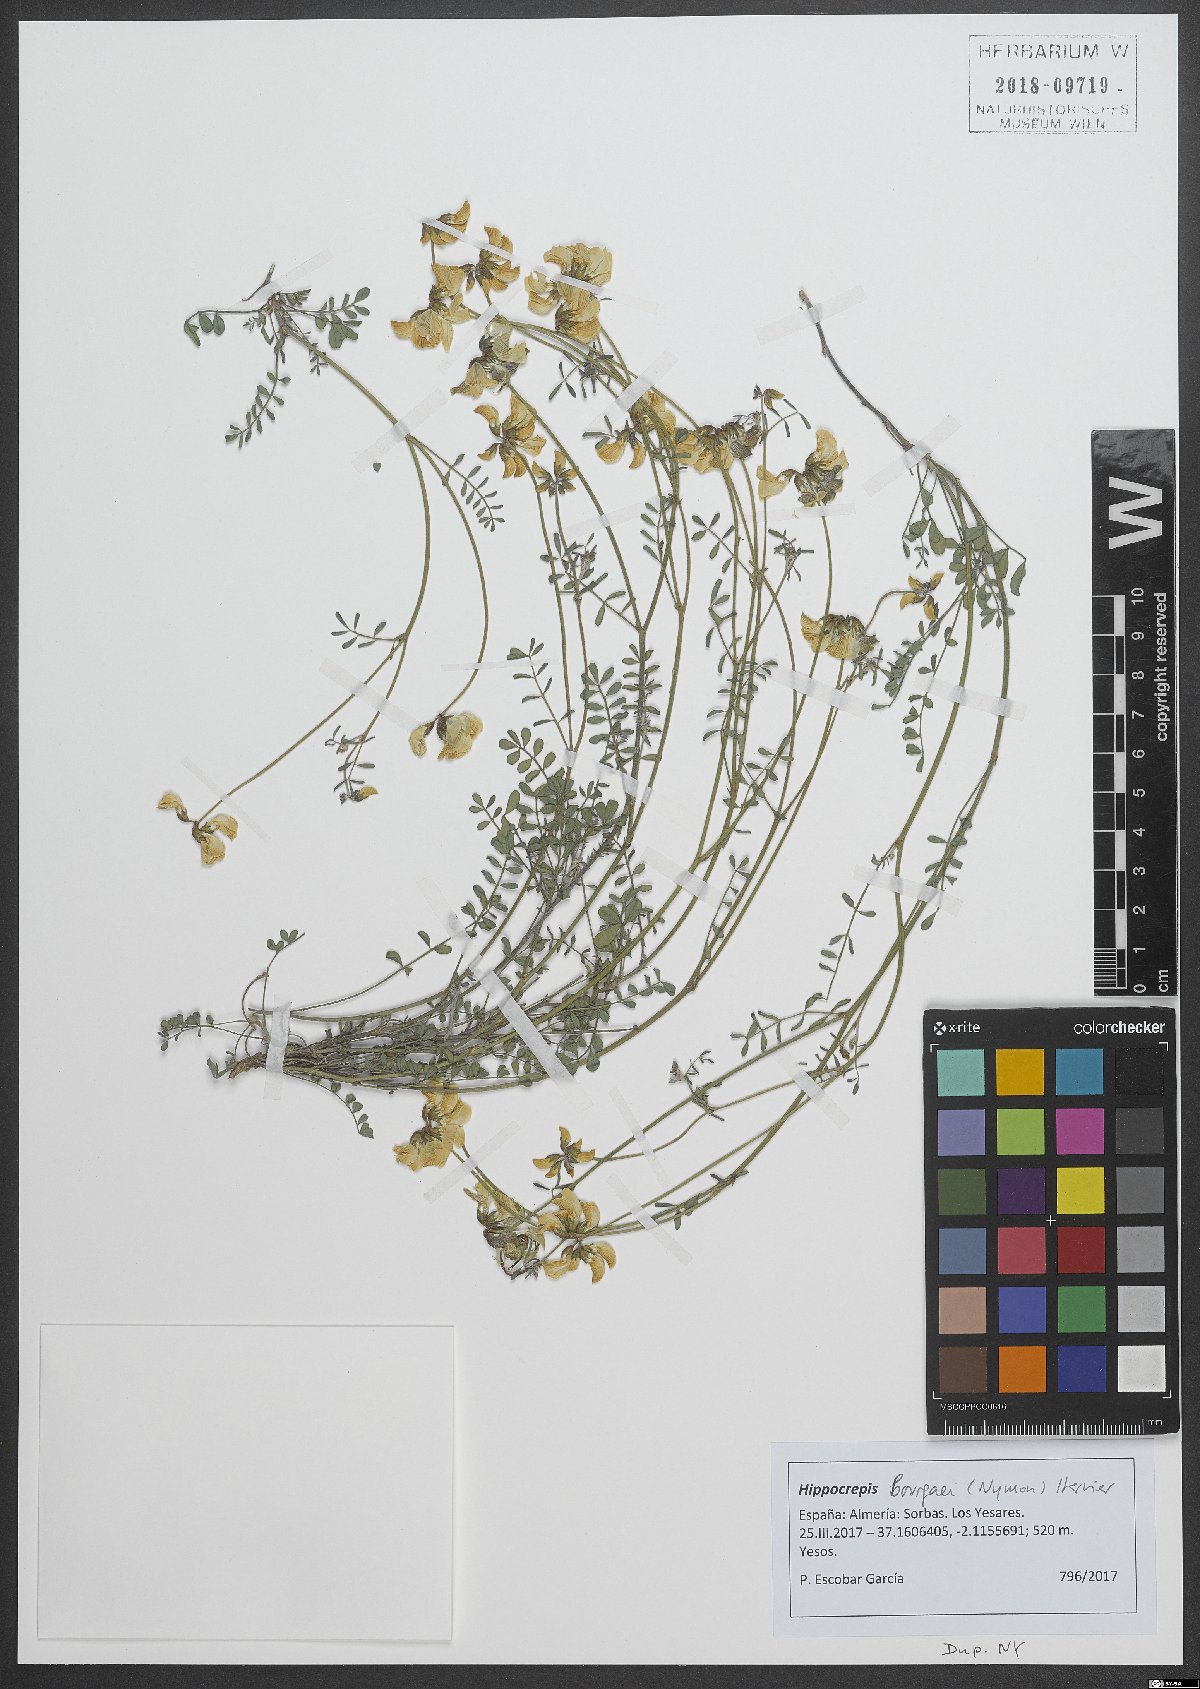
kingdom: Plantae
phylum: Tracheophyta
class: Magnoliopsida
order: Fabales
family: Fabaceae
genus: Hippocrepis
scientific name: Hippocrepis bourgaei
